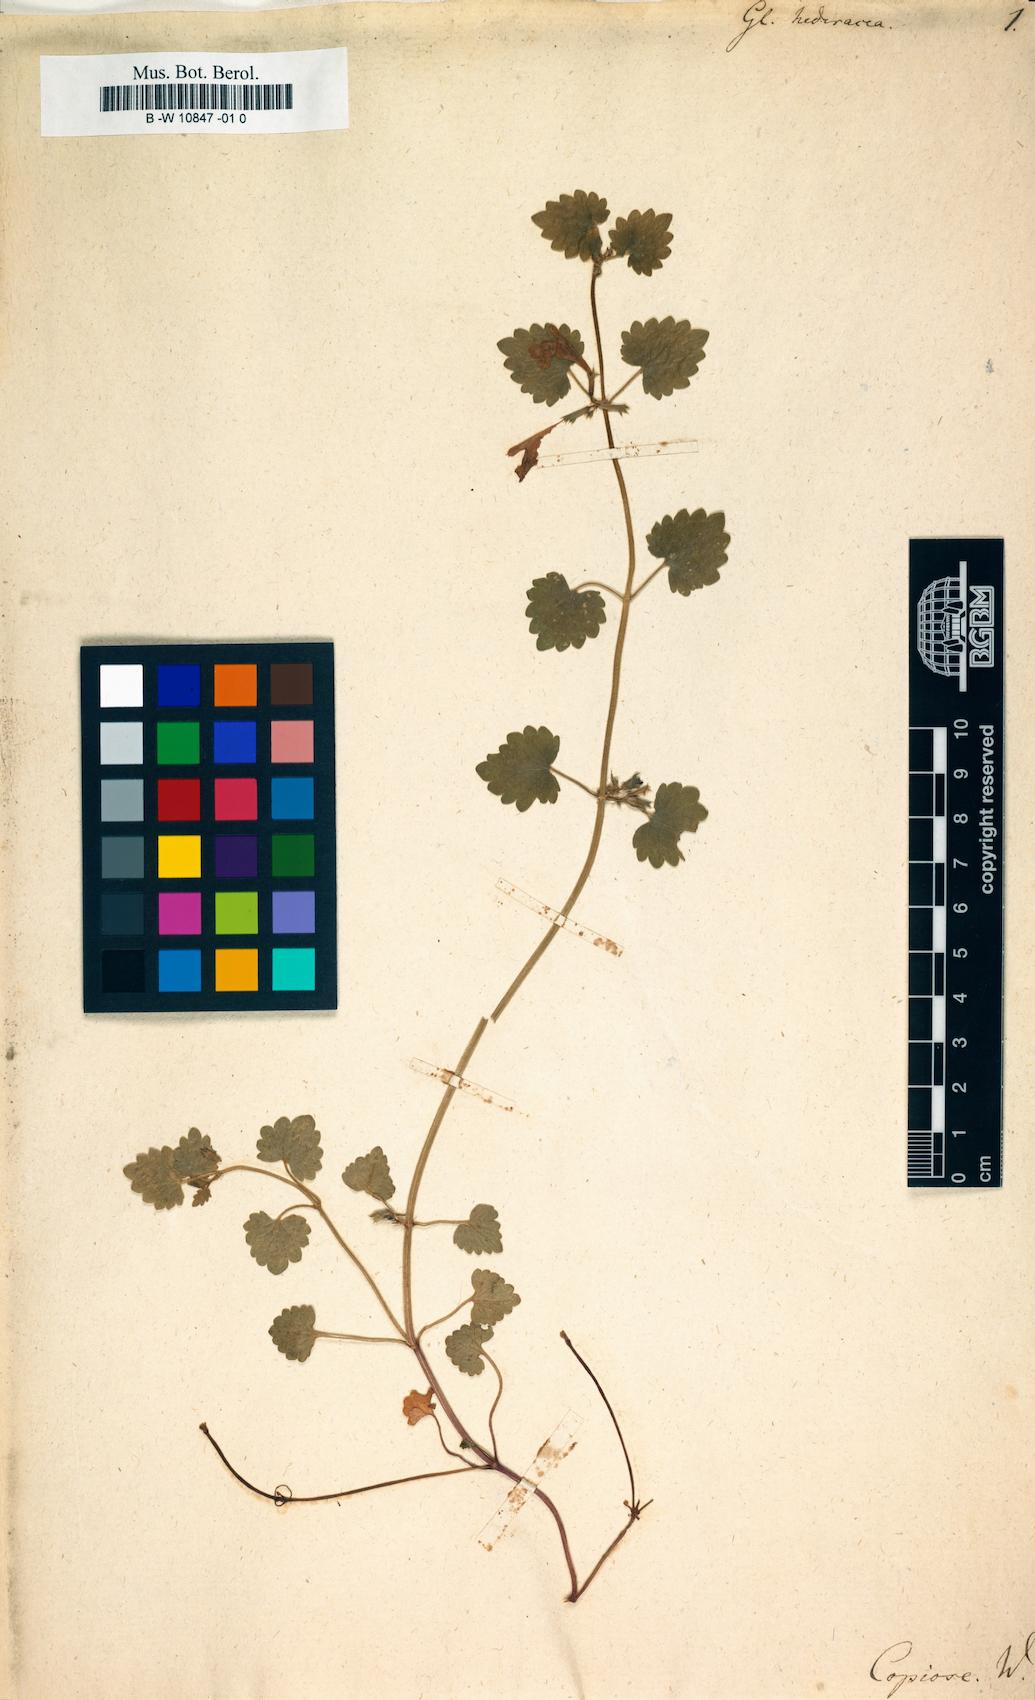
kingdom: Plantae
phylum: Tracheophyta
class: Magnoliopsida
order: Lamiales
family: Lamiaceae
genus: Glechoma
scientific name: Glechoma hederacea
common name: Ground ivy
